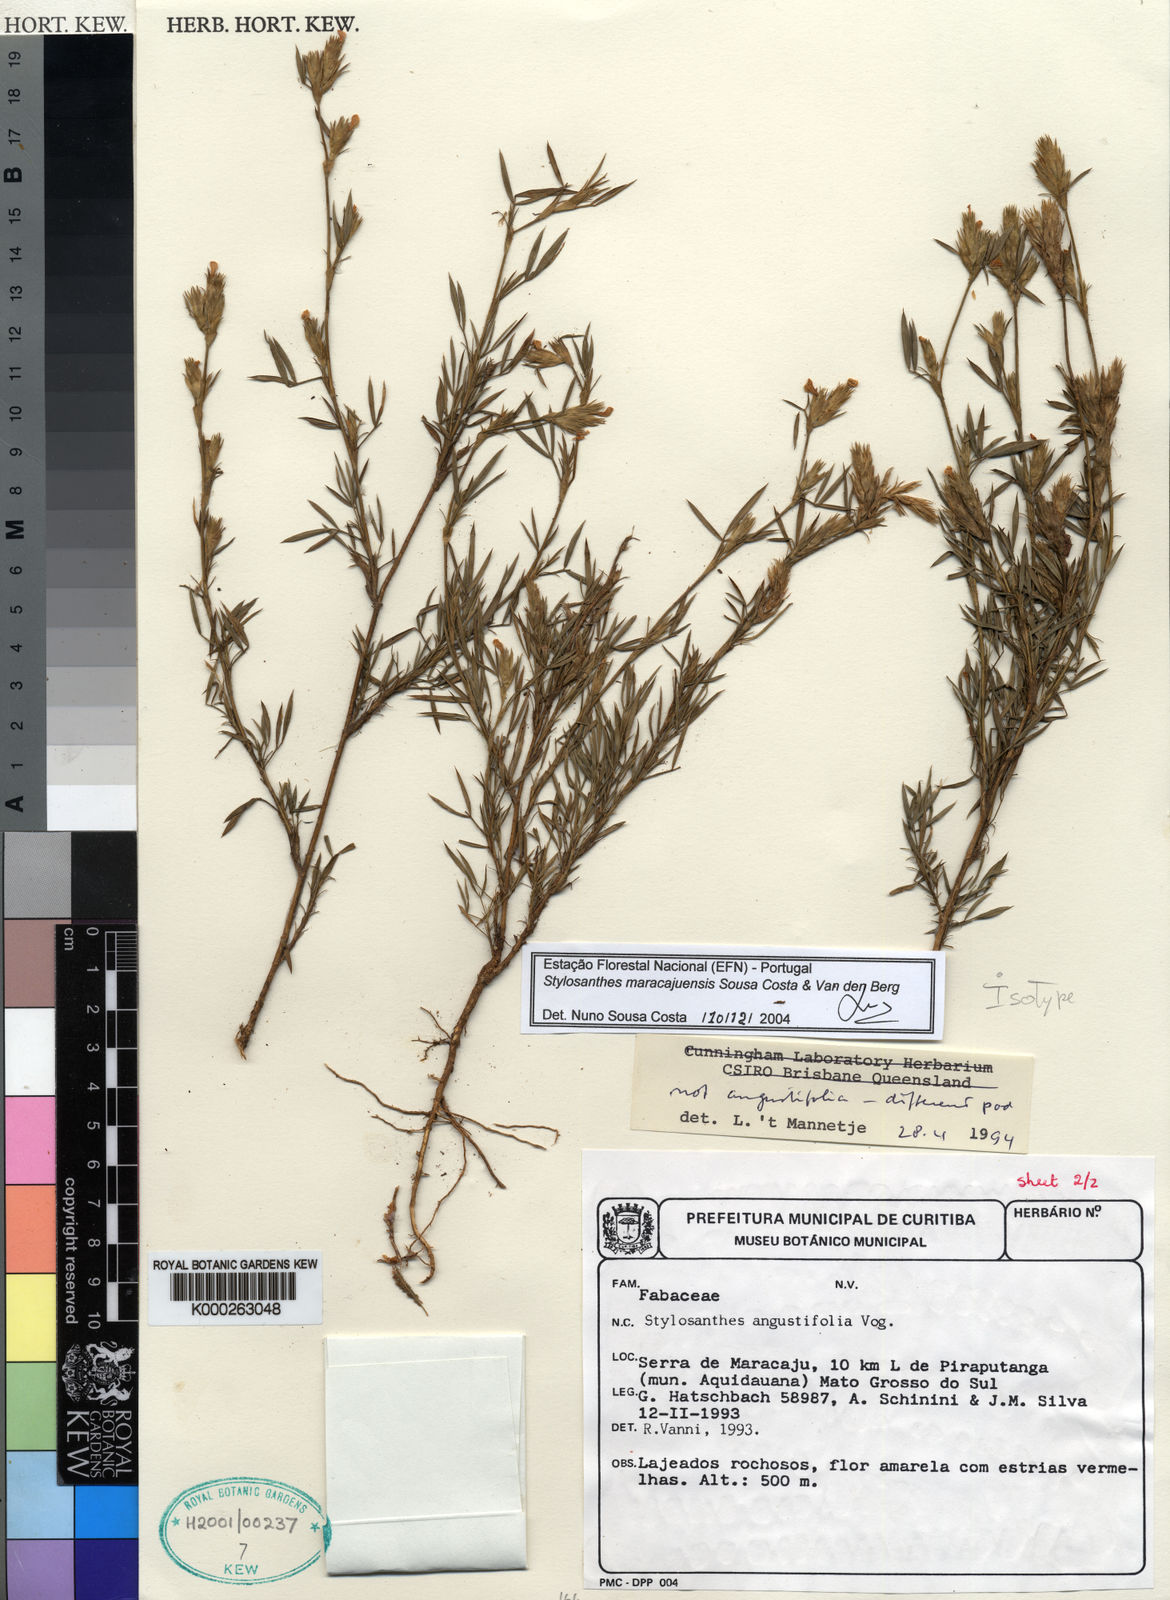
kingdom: Plantae
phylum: Tracheophyta
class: Magnoliopsida
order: Fabales
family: Fabaceae
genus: Stylosanthes
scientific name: Stylosanthes maracajuensis
